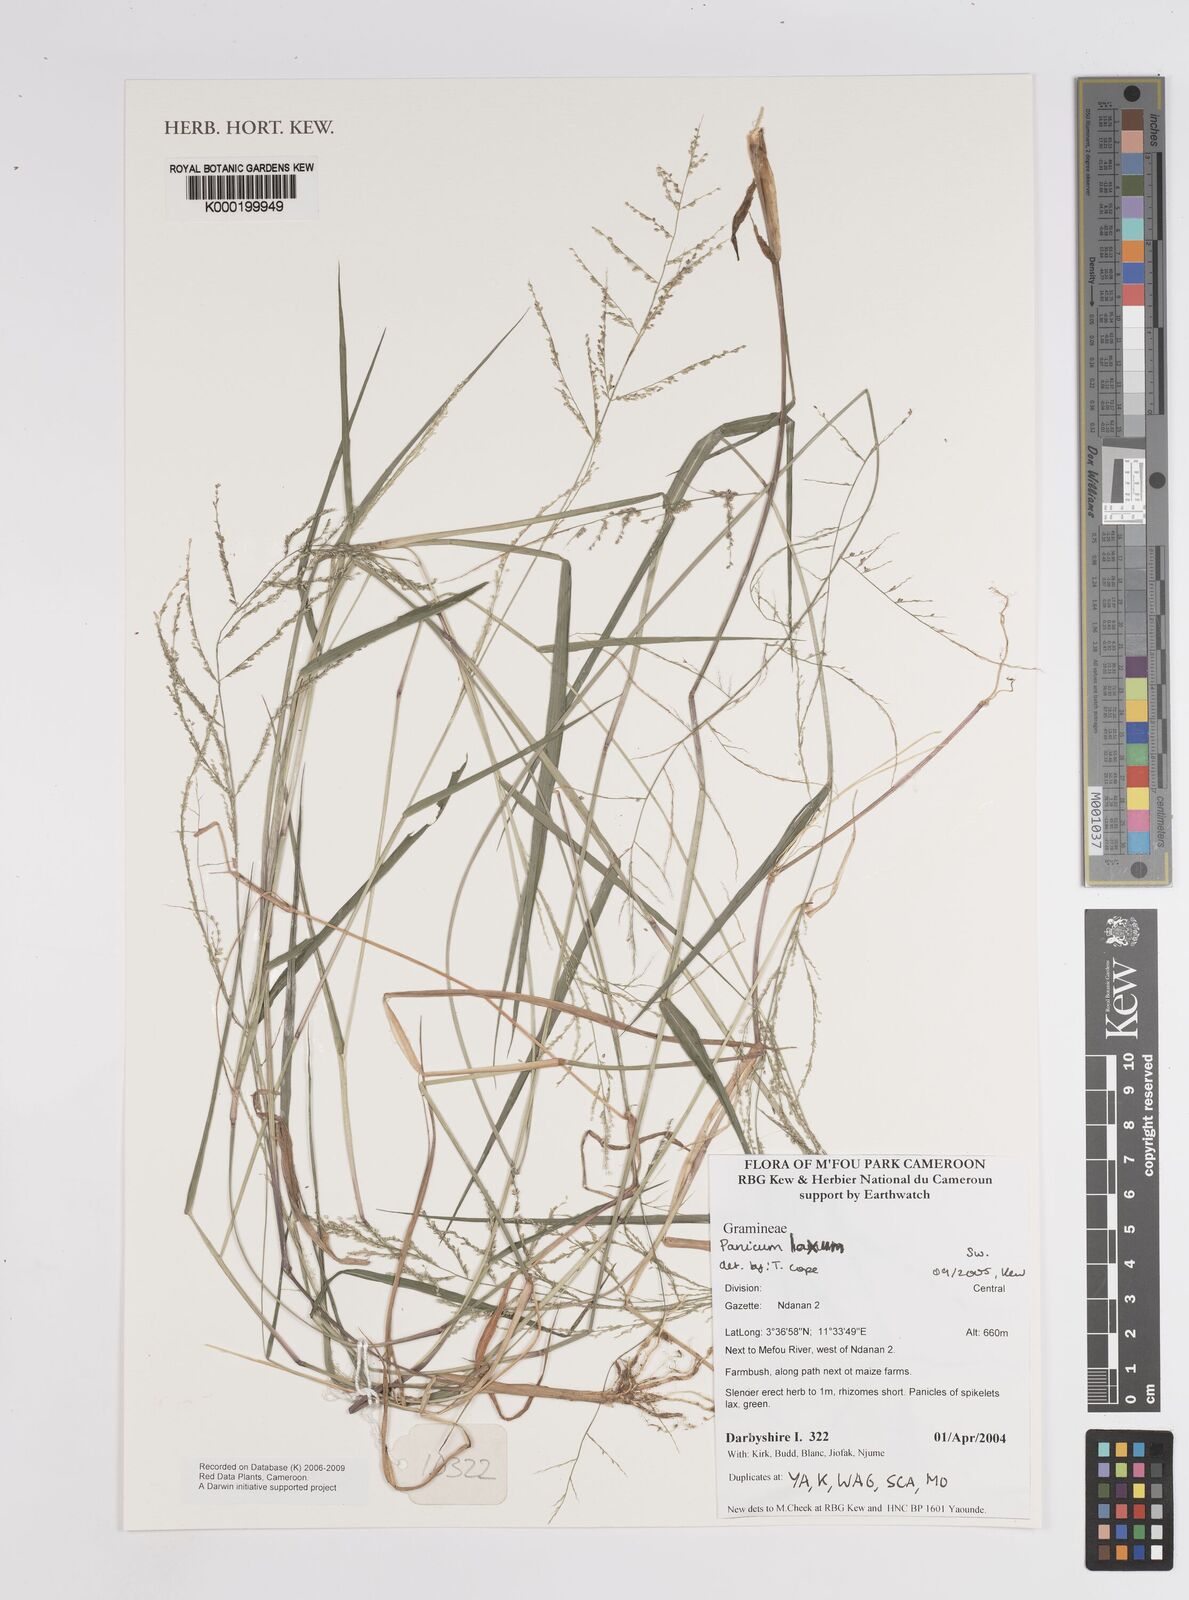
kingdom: Plantae
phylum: Tracheophyta
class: Liliopsida
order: Poales
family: Poaceae
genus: Steinchisma
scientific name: Steinchisma laxum
